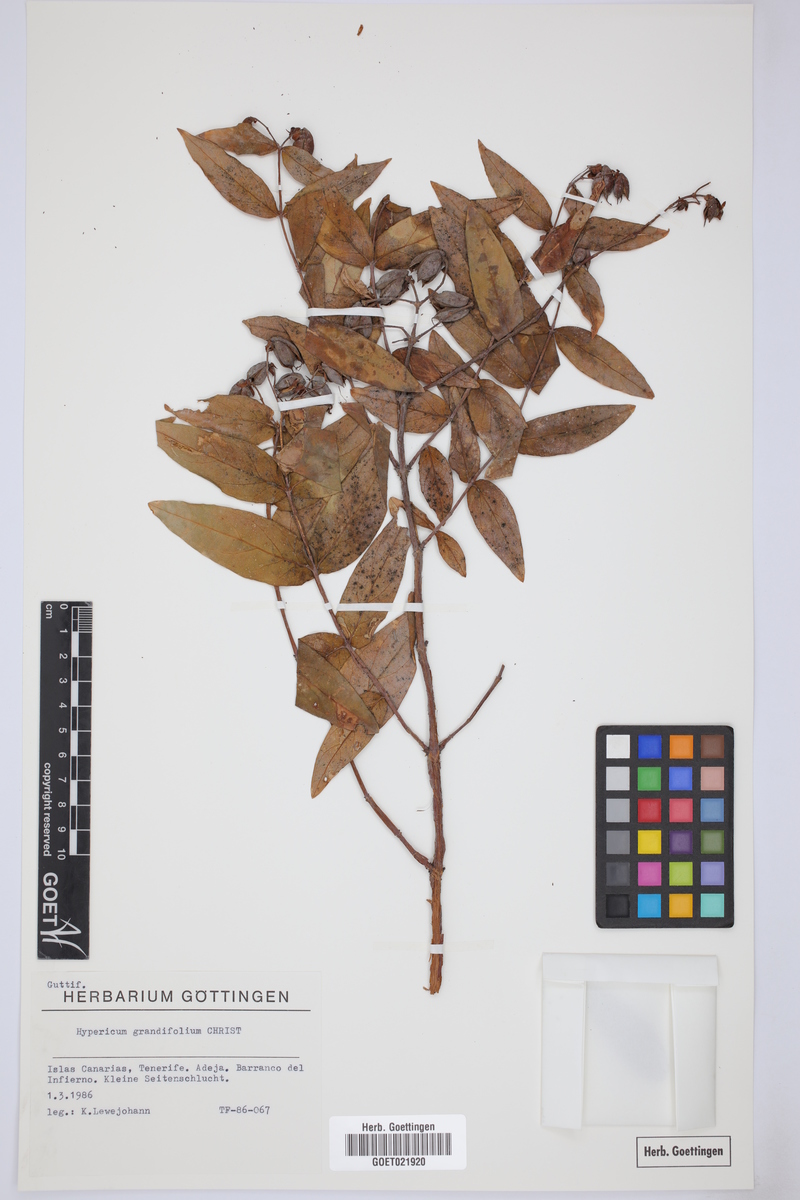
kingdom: Plantae
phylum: Tracheophyta
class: Magnoliopsida
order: Malpighiales
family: Hypericaceae
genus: Hypericum
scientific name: Hypericum glandulosum
